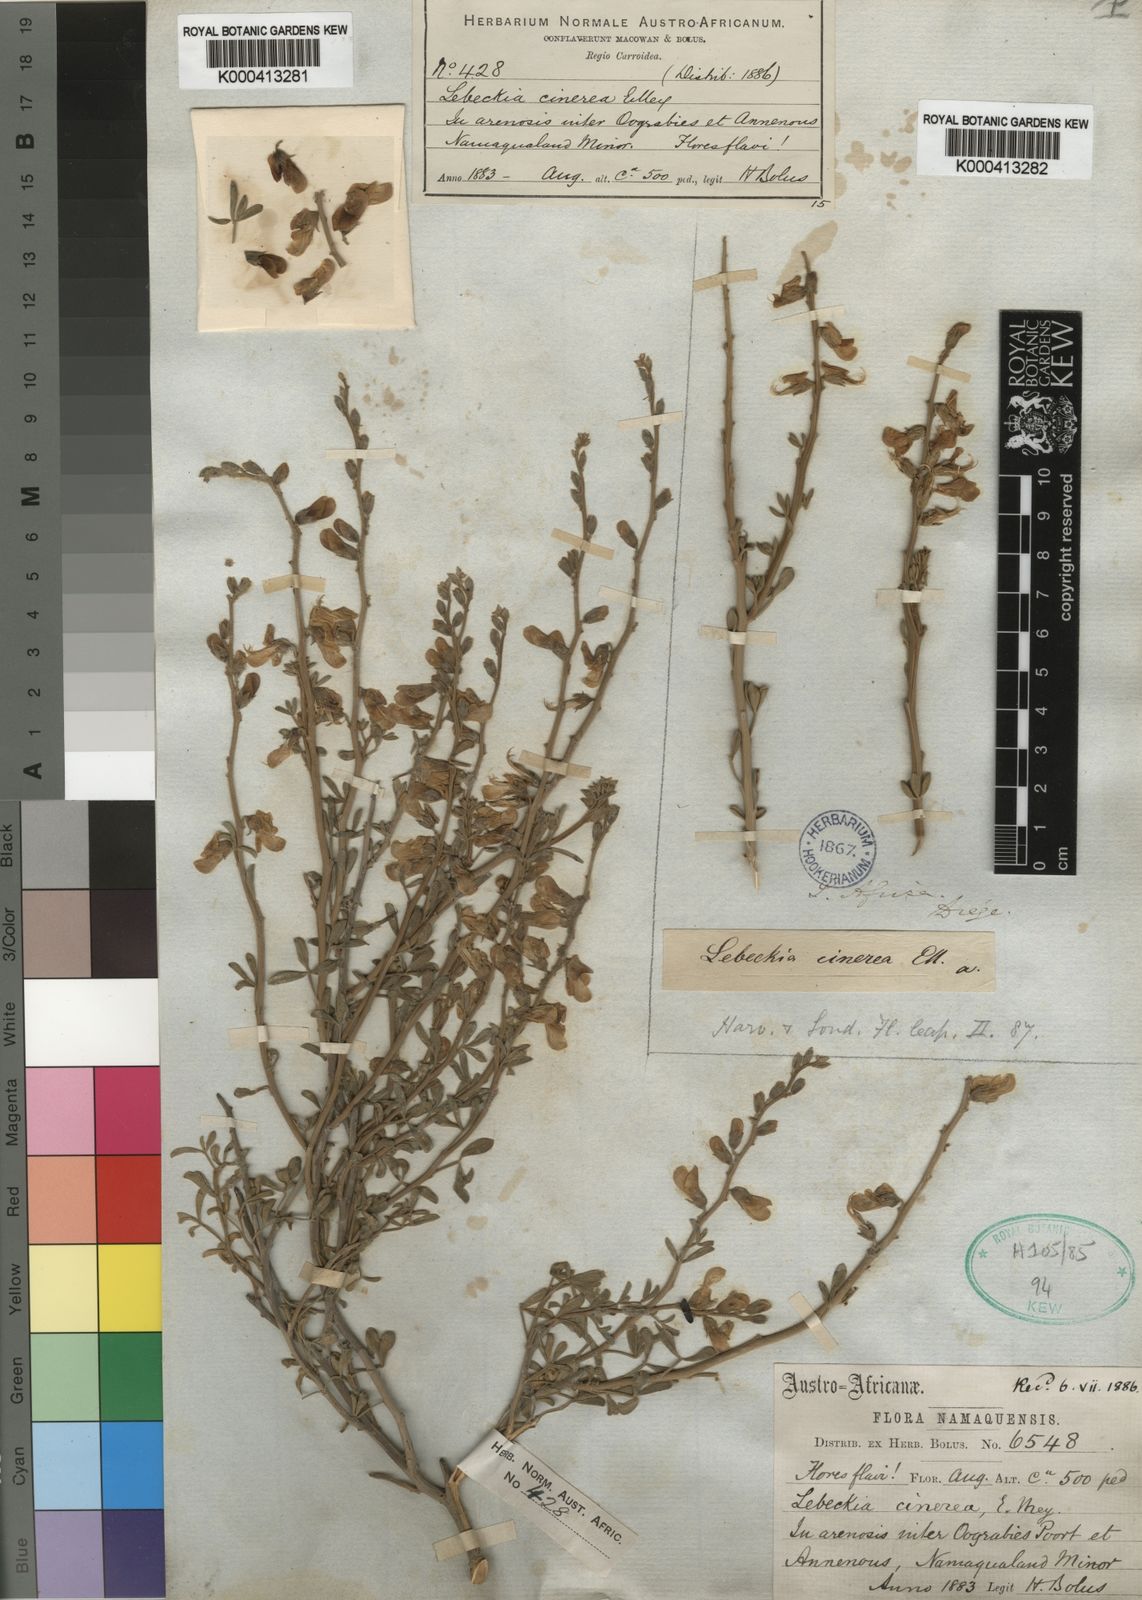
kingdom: Plantae
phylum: Tracheophyta
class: Magnoliopsida
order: Fabales
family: Fabaceae
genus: Calobota
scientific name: Calobota cinerea
